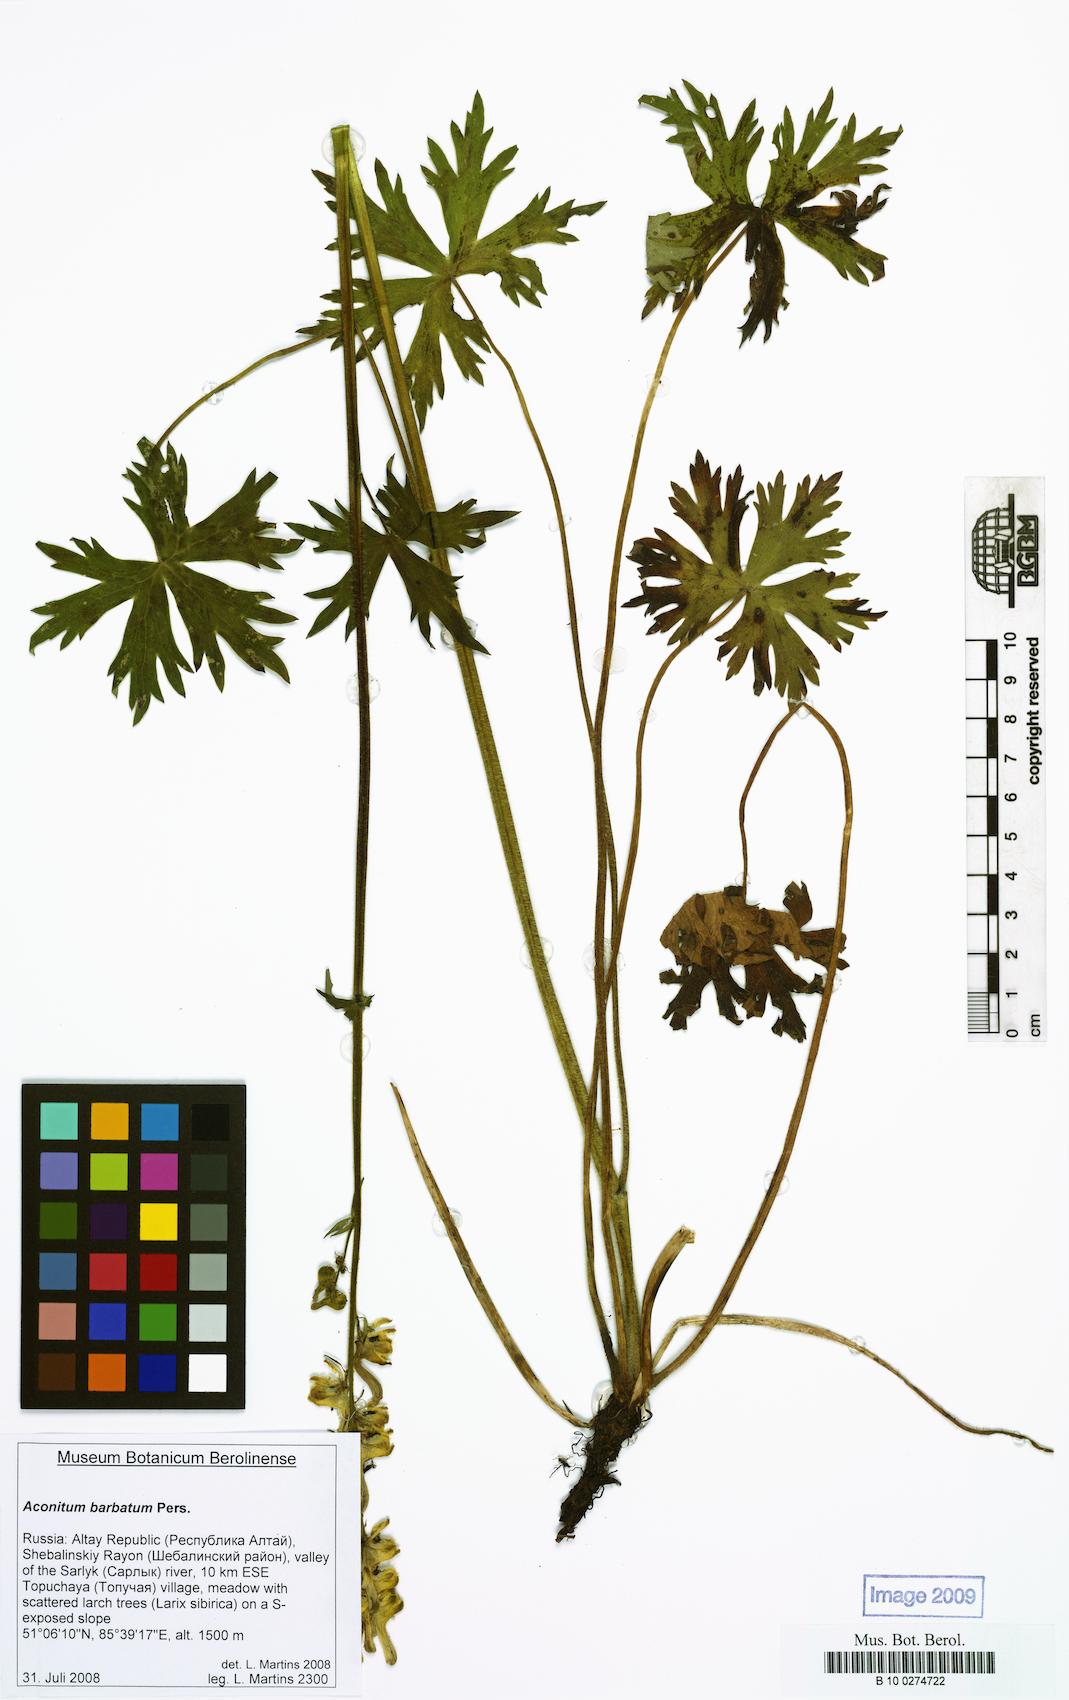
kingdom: Plantae
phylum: Tracheophyta
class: Magnoliopsida
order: Ranunculales
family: Ranunculaceae
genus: Aconitum
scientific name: Aconitum barbatum
